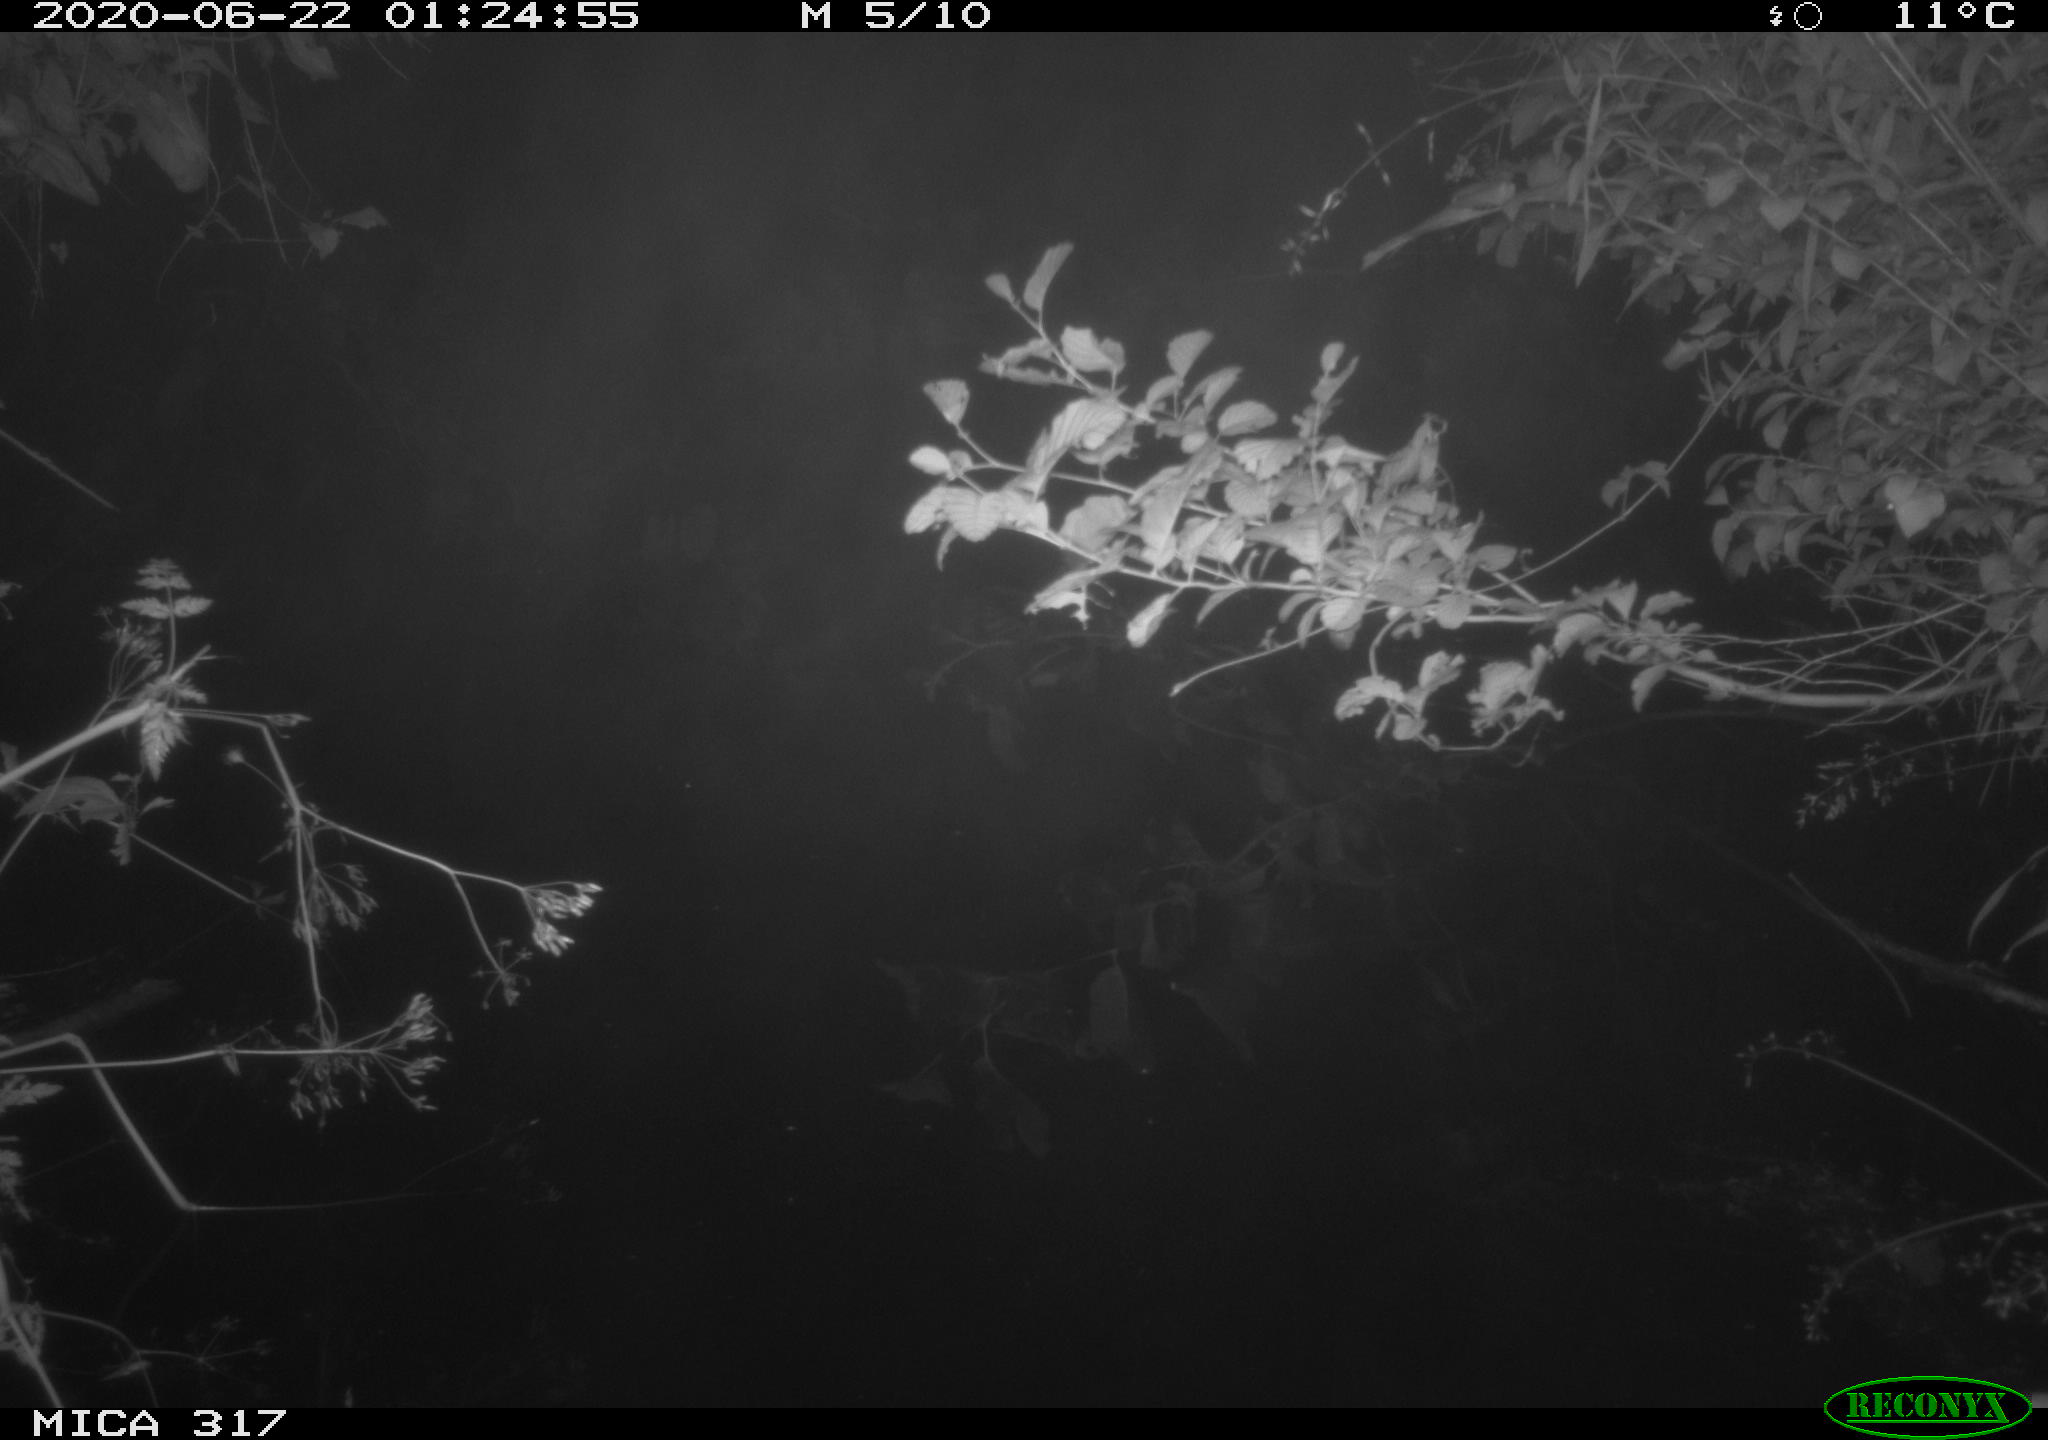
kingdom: Animalia
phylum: Chordata
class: Aves
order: Anseriformes
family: Anatidae
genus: Anas
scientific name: Anas platyrhynchos
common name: Mallard
